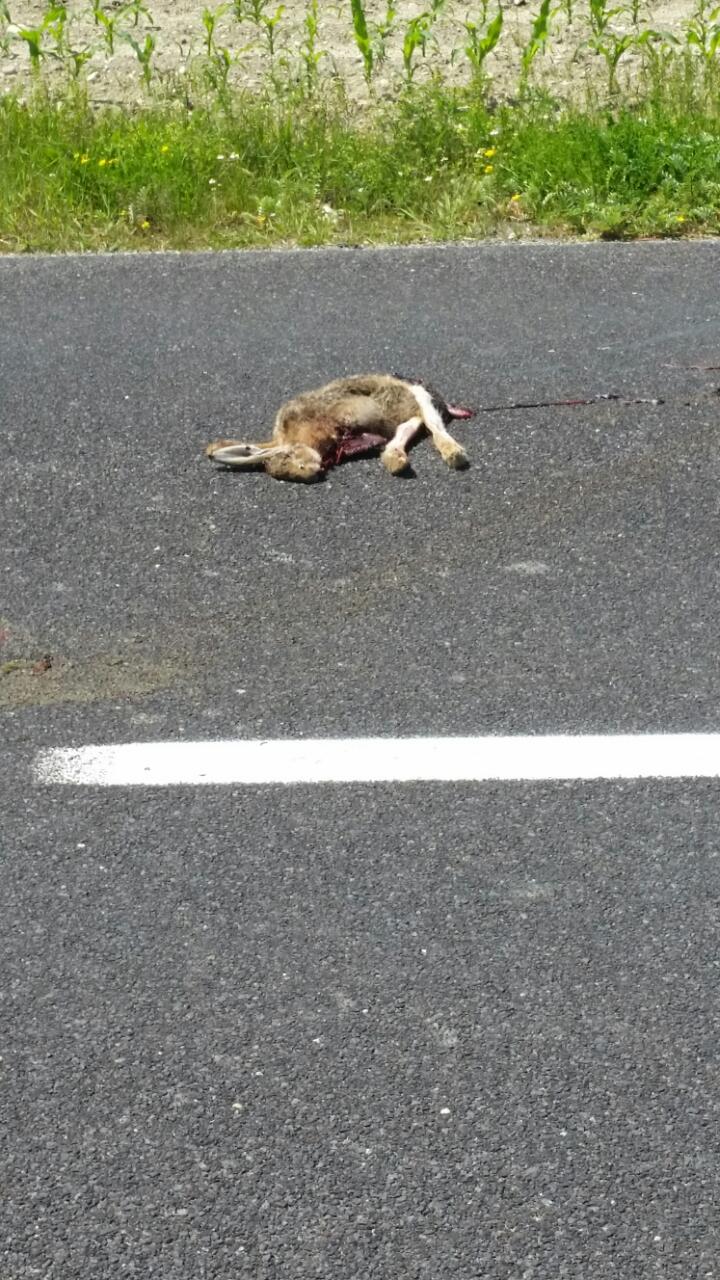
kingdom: Animalia
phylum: Chordata
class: Mammalia
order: Lagomorpha
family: Leporidae
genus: Lepus
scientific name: Lepus europaeus
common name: European hare
